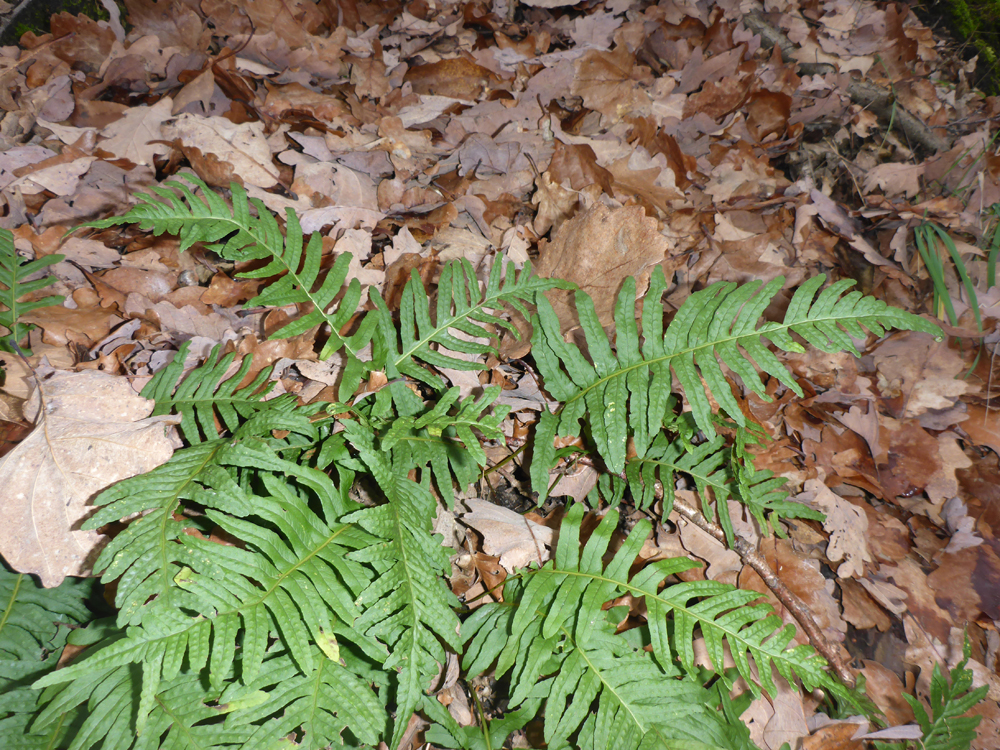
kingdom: Plantae
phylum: Tracheophyta
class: Polypodiopsida
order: Polypodiales
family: Polypodiaceae
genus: Polypodium
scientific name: Polypodium vulgare
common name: Common polypody
